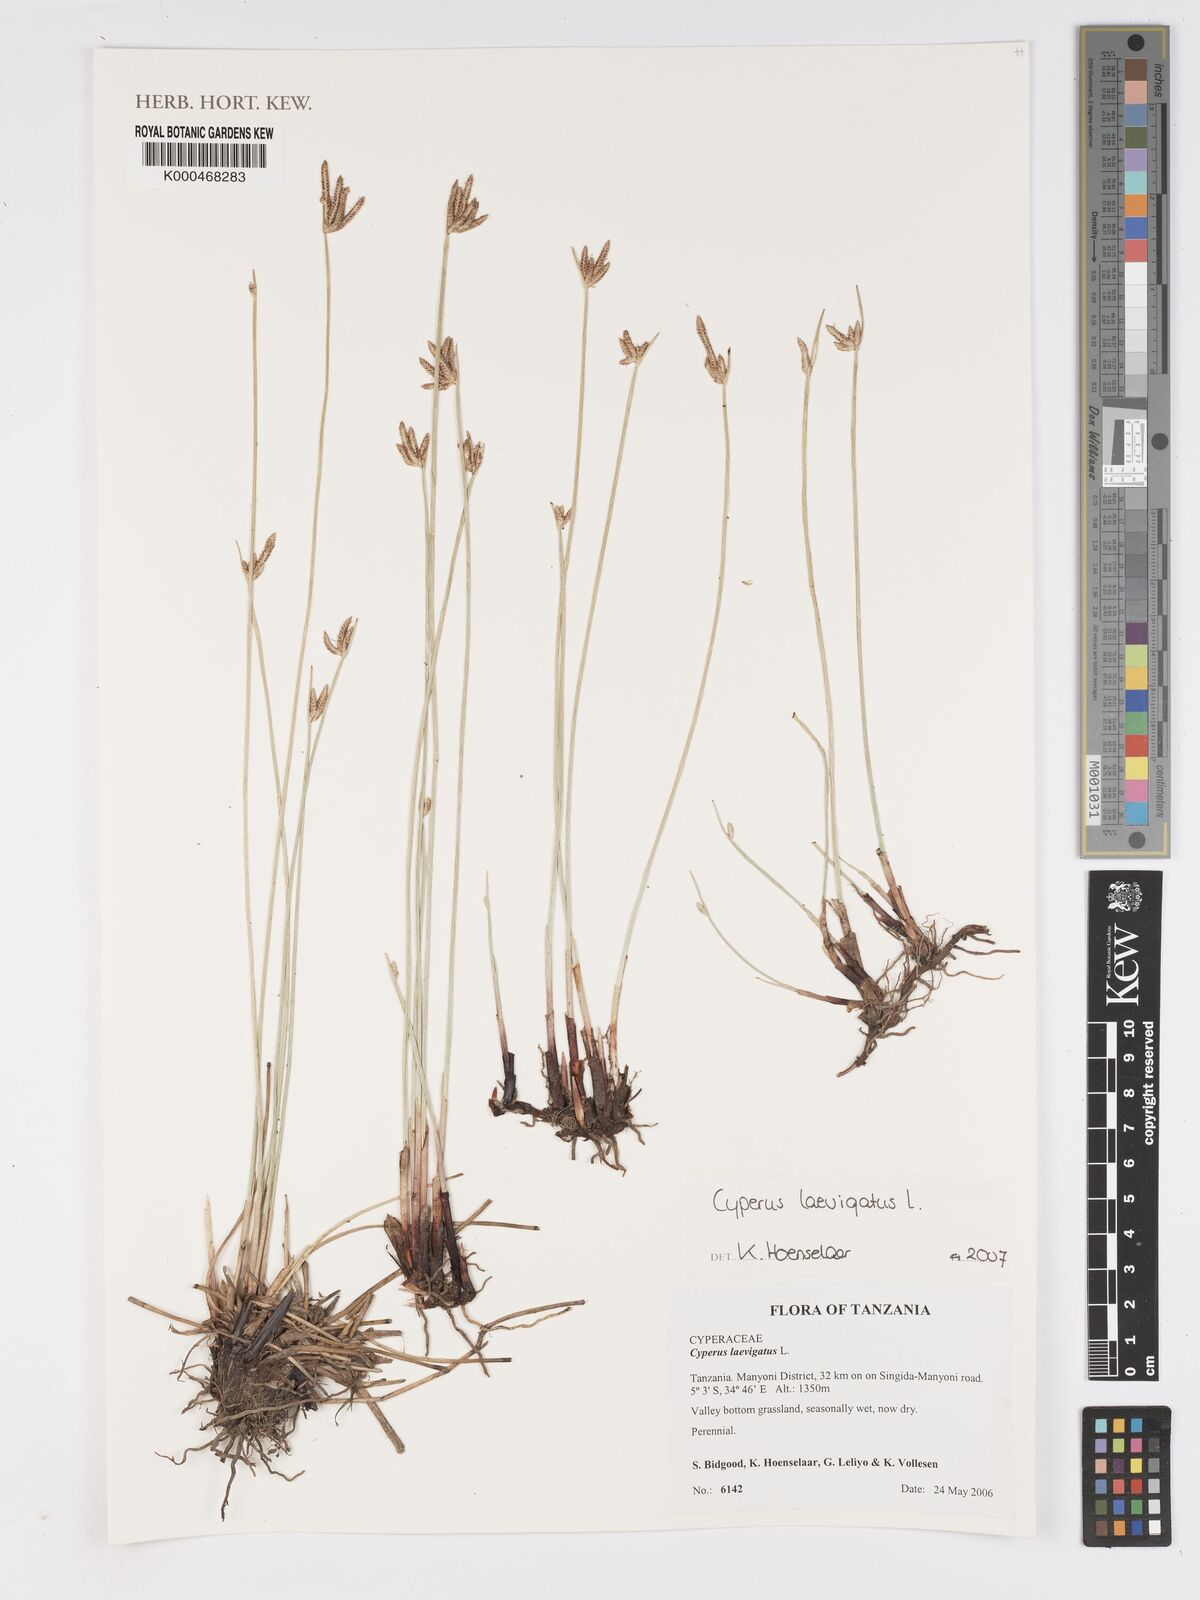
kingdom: Plantae
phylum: Tracheophyta
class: Liliopsida
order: Poales
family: Cyperaceae
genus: Cyperus
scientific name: Cyperus laevigatus
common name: Smooth flat sedge
